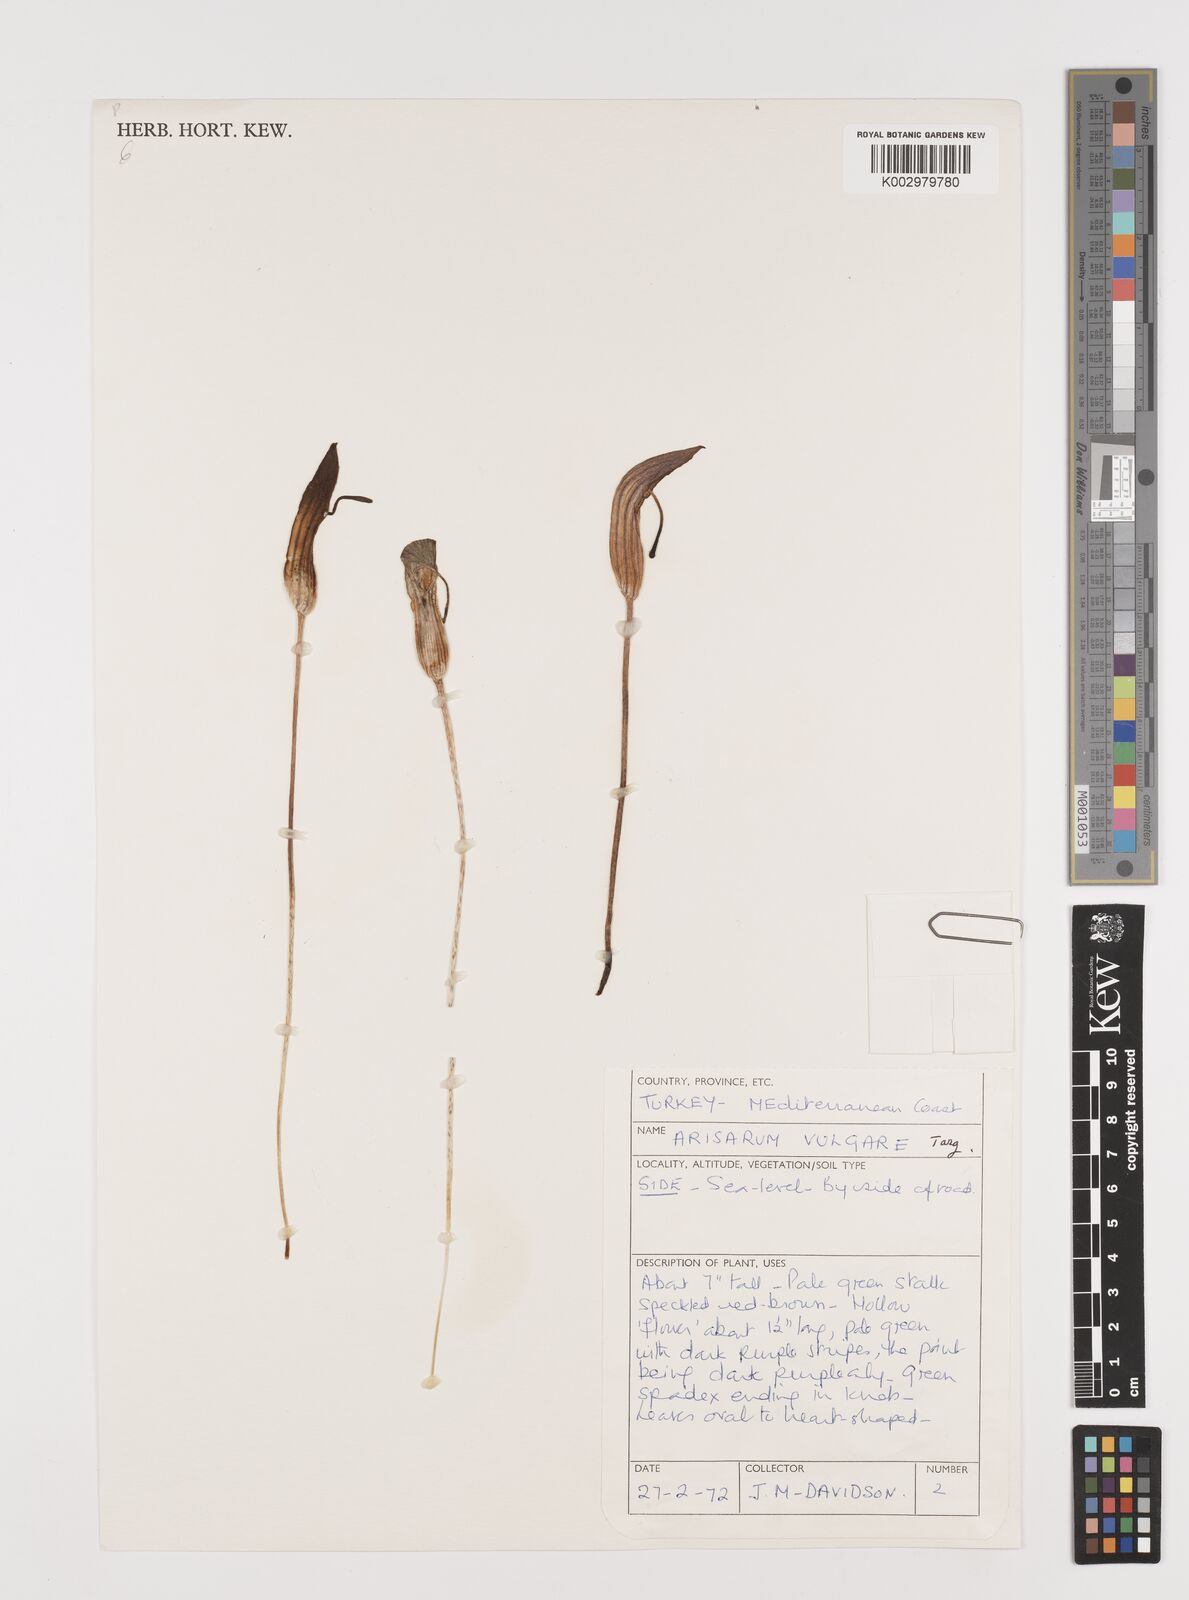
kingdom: Plantae
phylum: Tracheophyta
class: Liliopsida
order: Alismatales
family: Araceae
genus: Arisarum
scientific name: Arisarum vulgare
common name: Common arisarum
